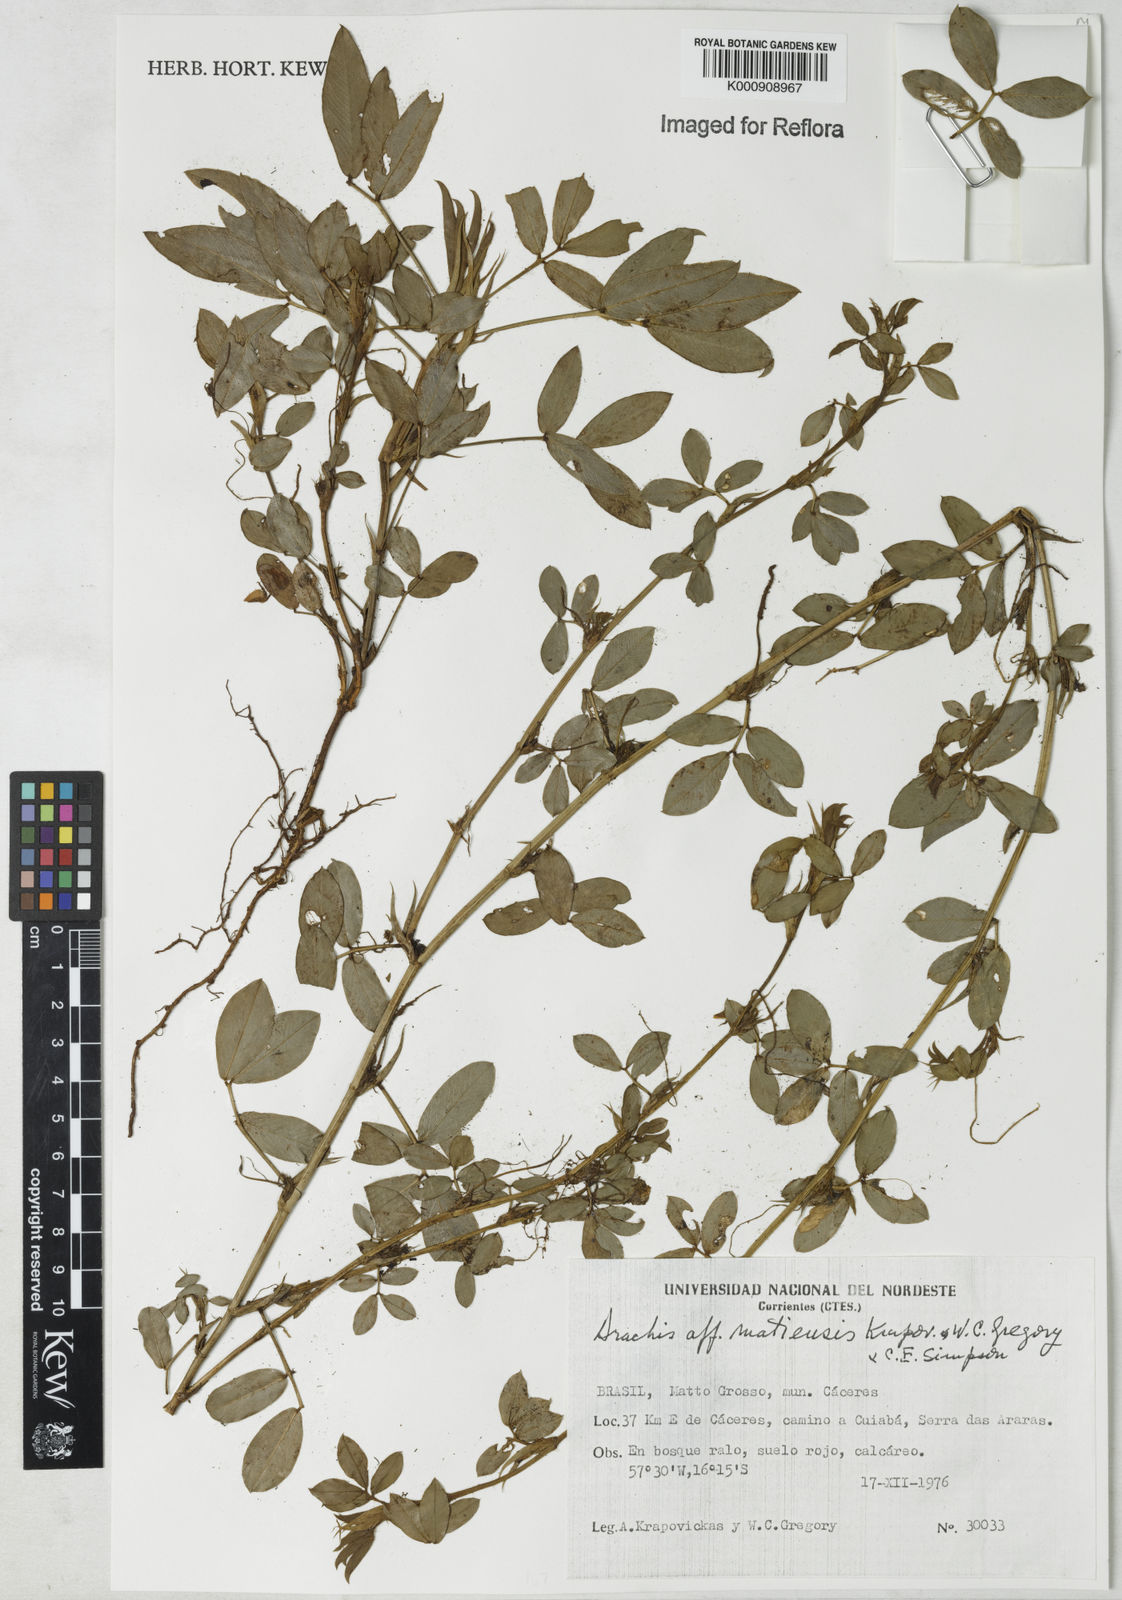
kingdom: Plantae
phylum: Tracheophyta
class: Magnoliopsida
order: Fabales
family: Fabaceae
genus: Arachis
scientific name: Arachis matiensis
